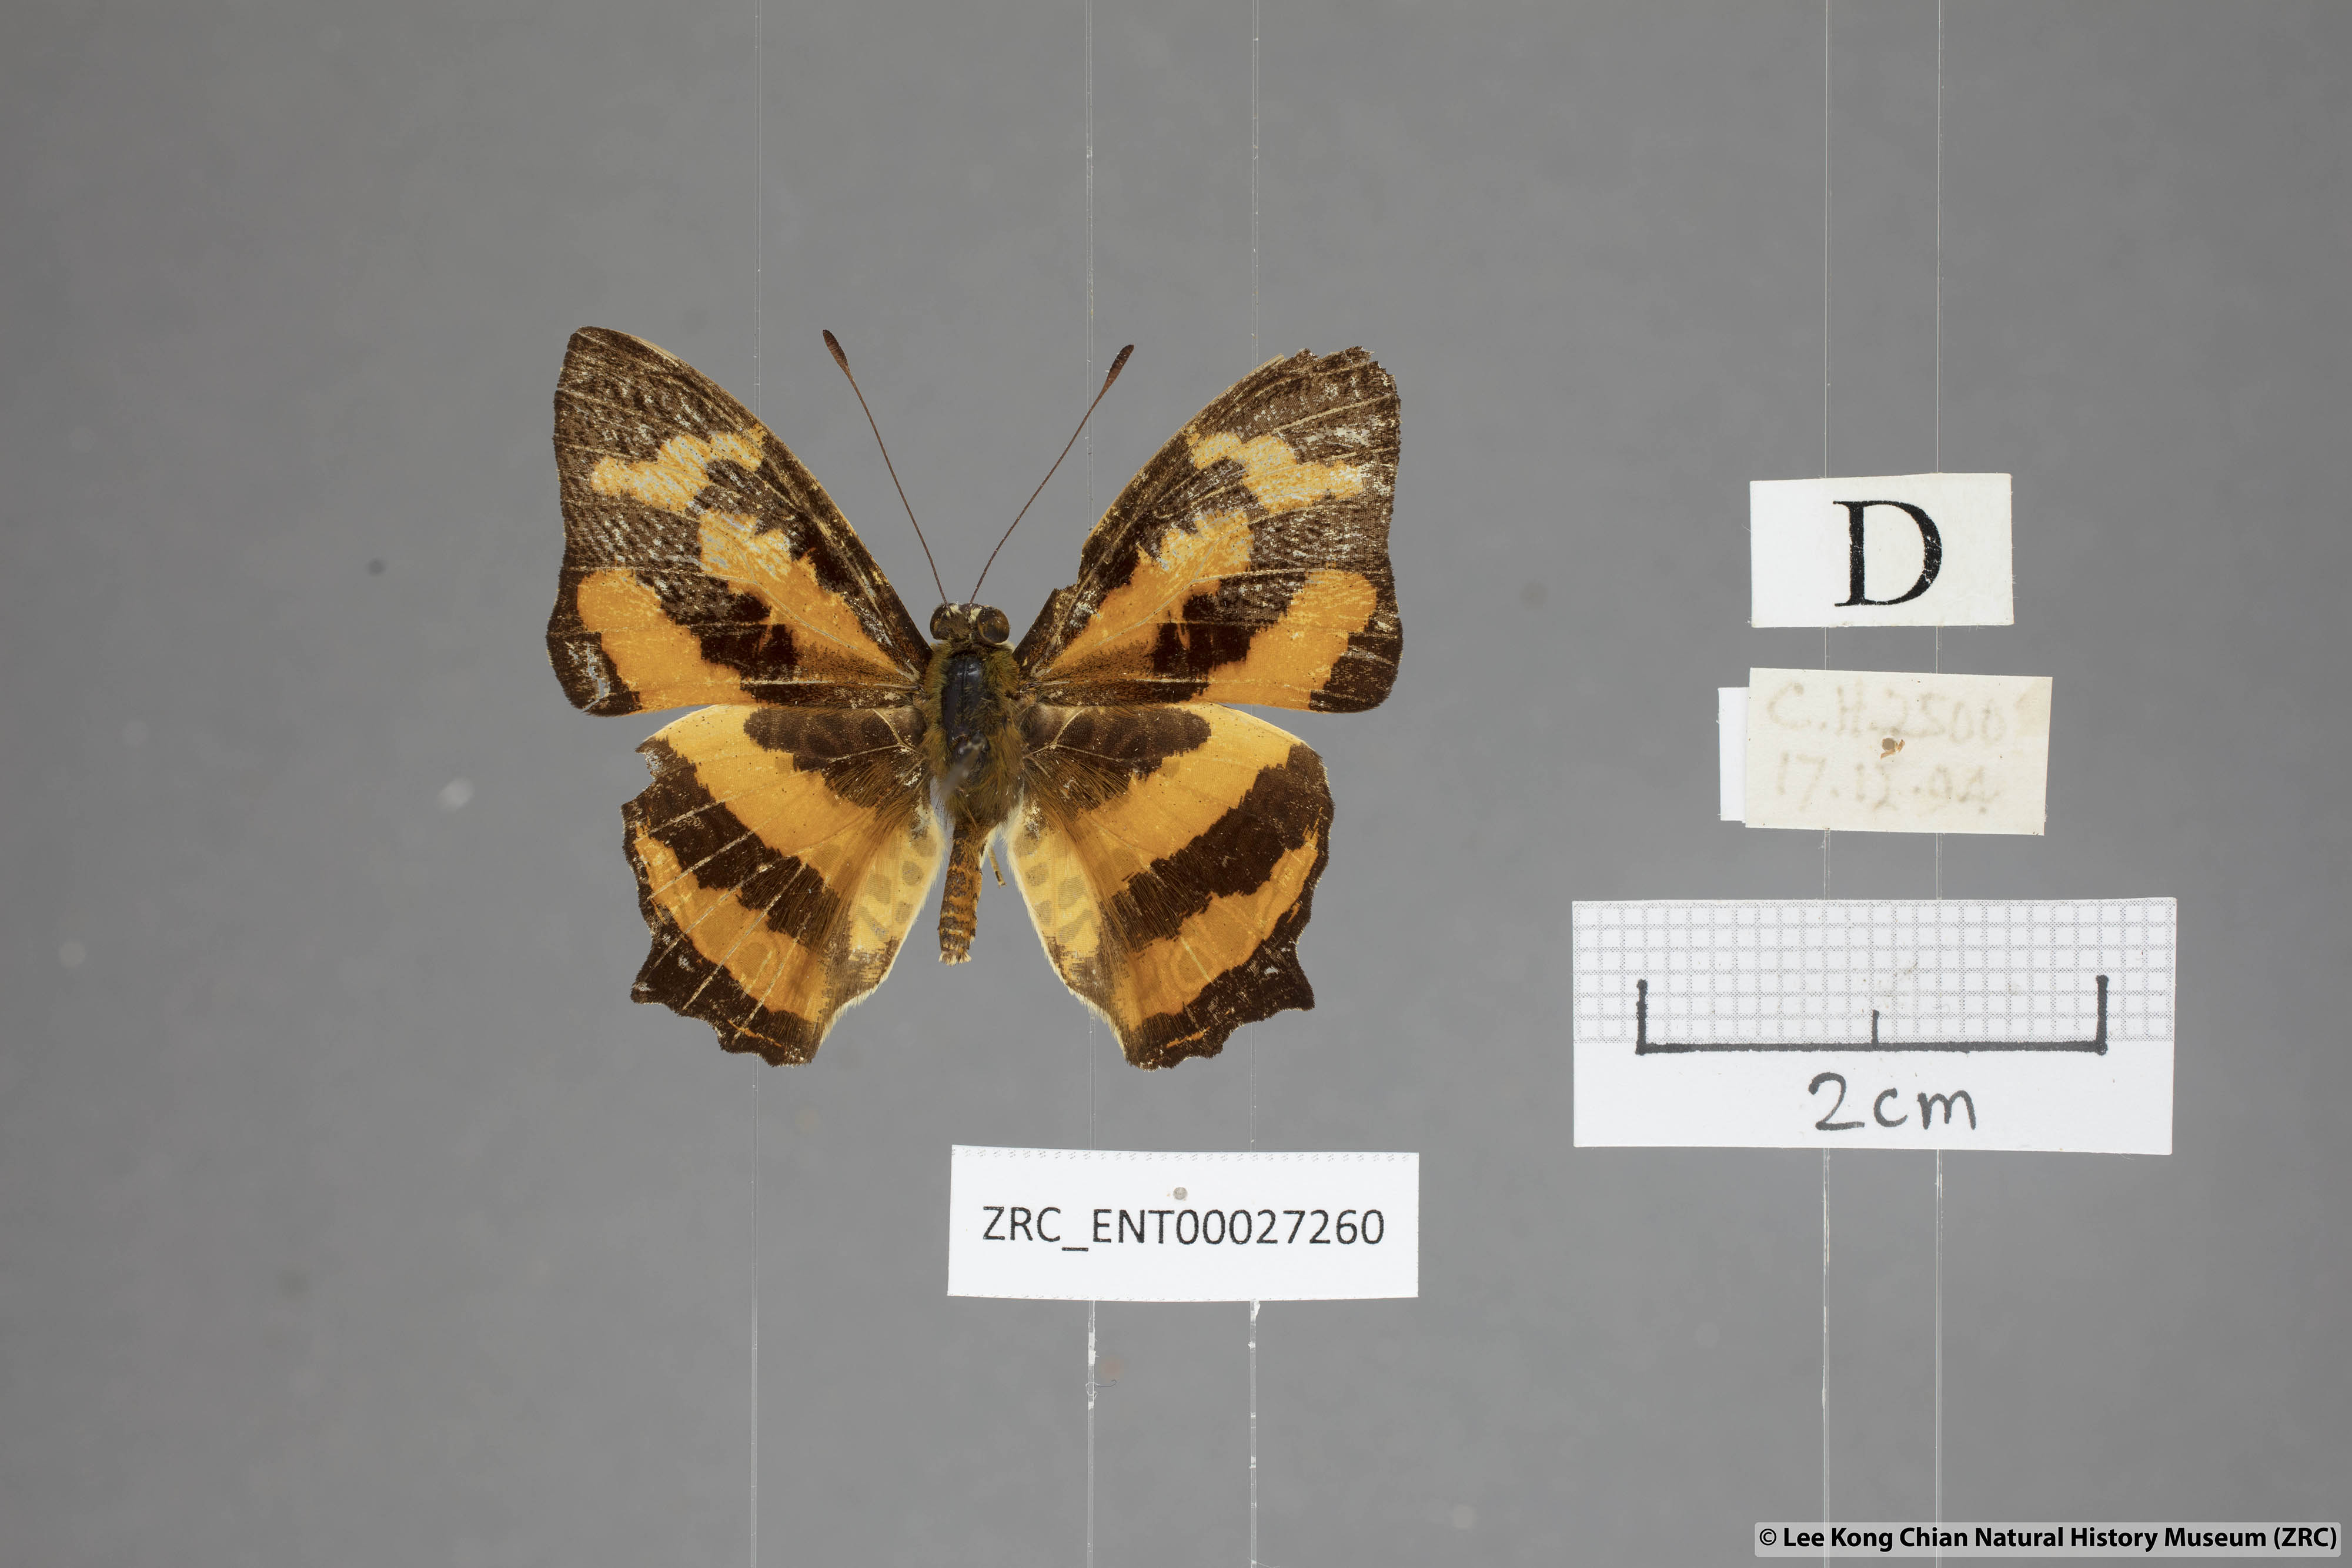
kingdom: Animalia
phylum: Arthropoda
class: Insecta
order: Lepidoptera
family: Nymphalidae
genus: Symbrenthia
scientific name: Symbrenthia hypselis
